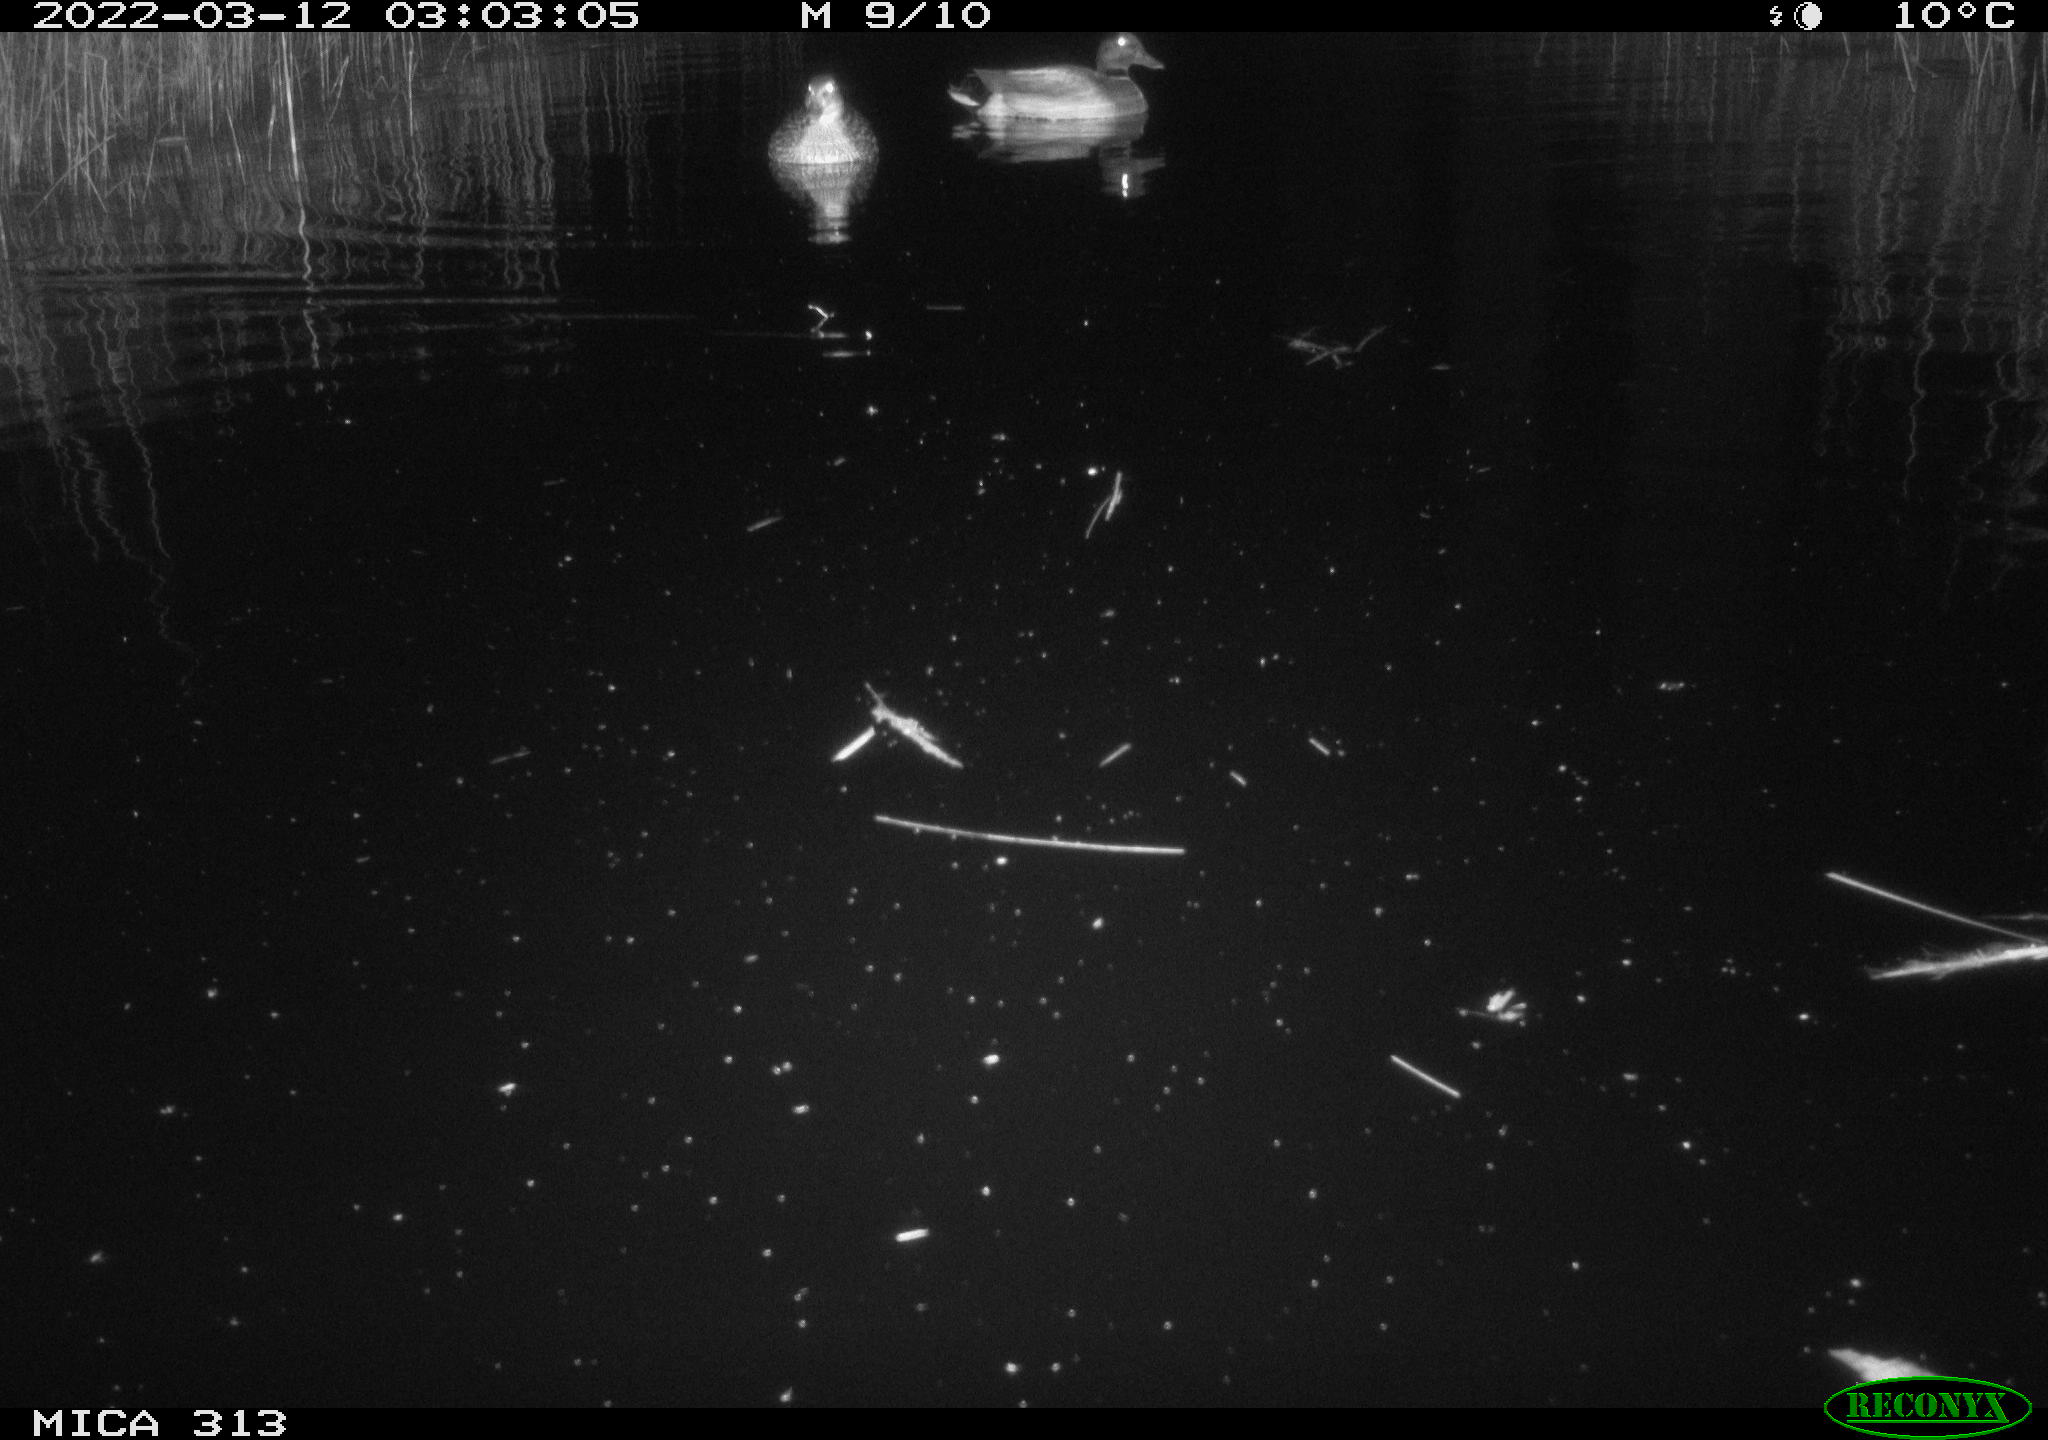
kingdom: Animalia
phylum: Chordata
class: Mammalia
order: Rodentia
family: Muridae
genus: Rattus
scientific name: Rattus norvegicus
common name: Brown rat
